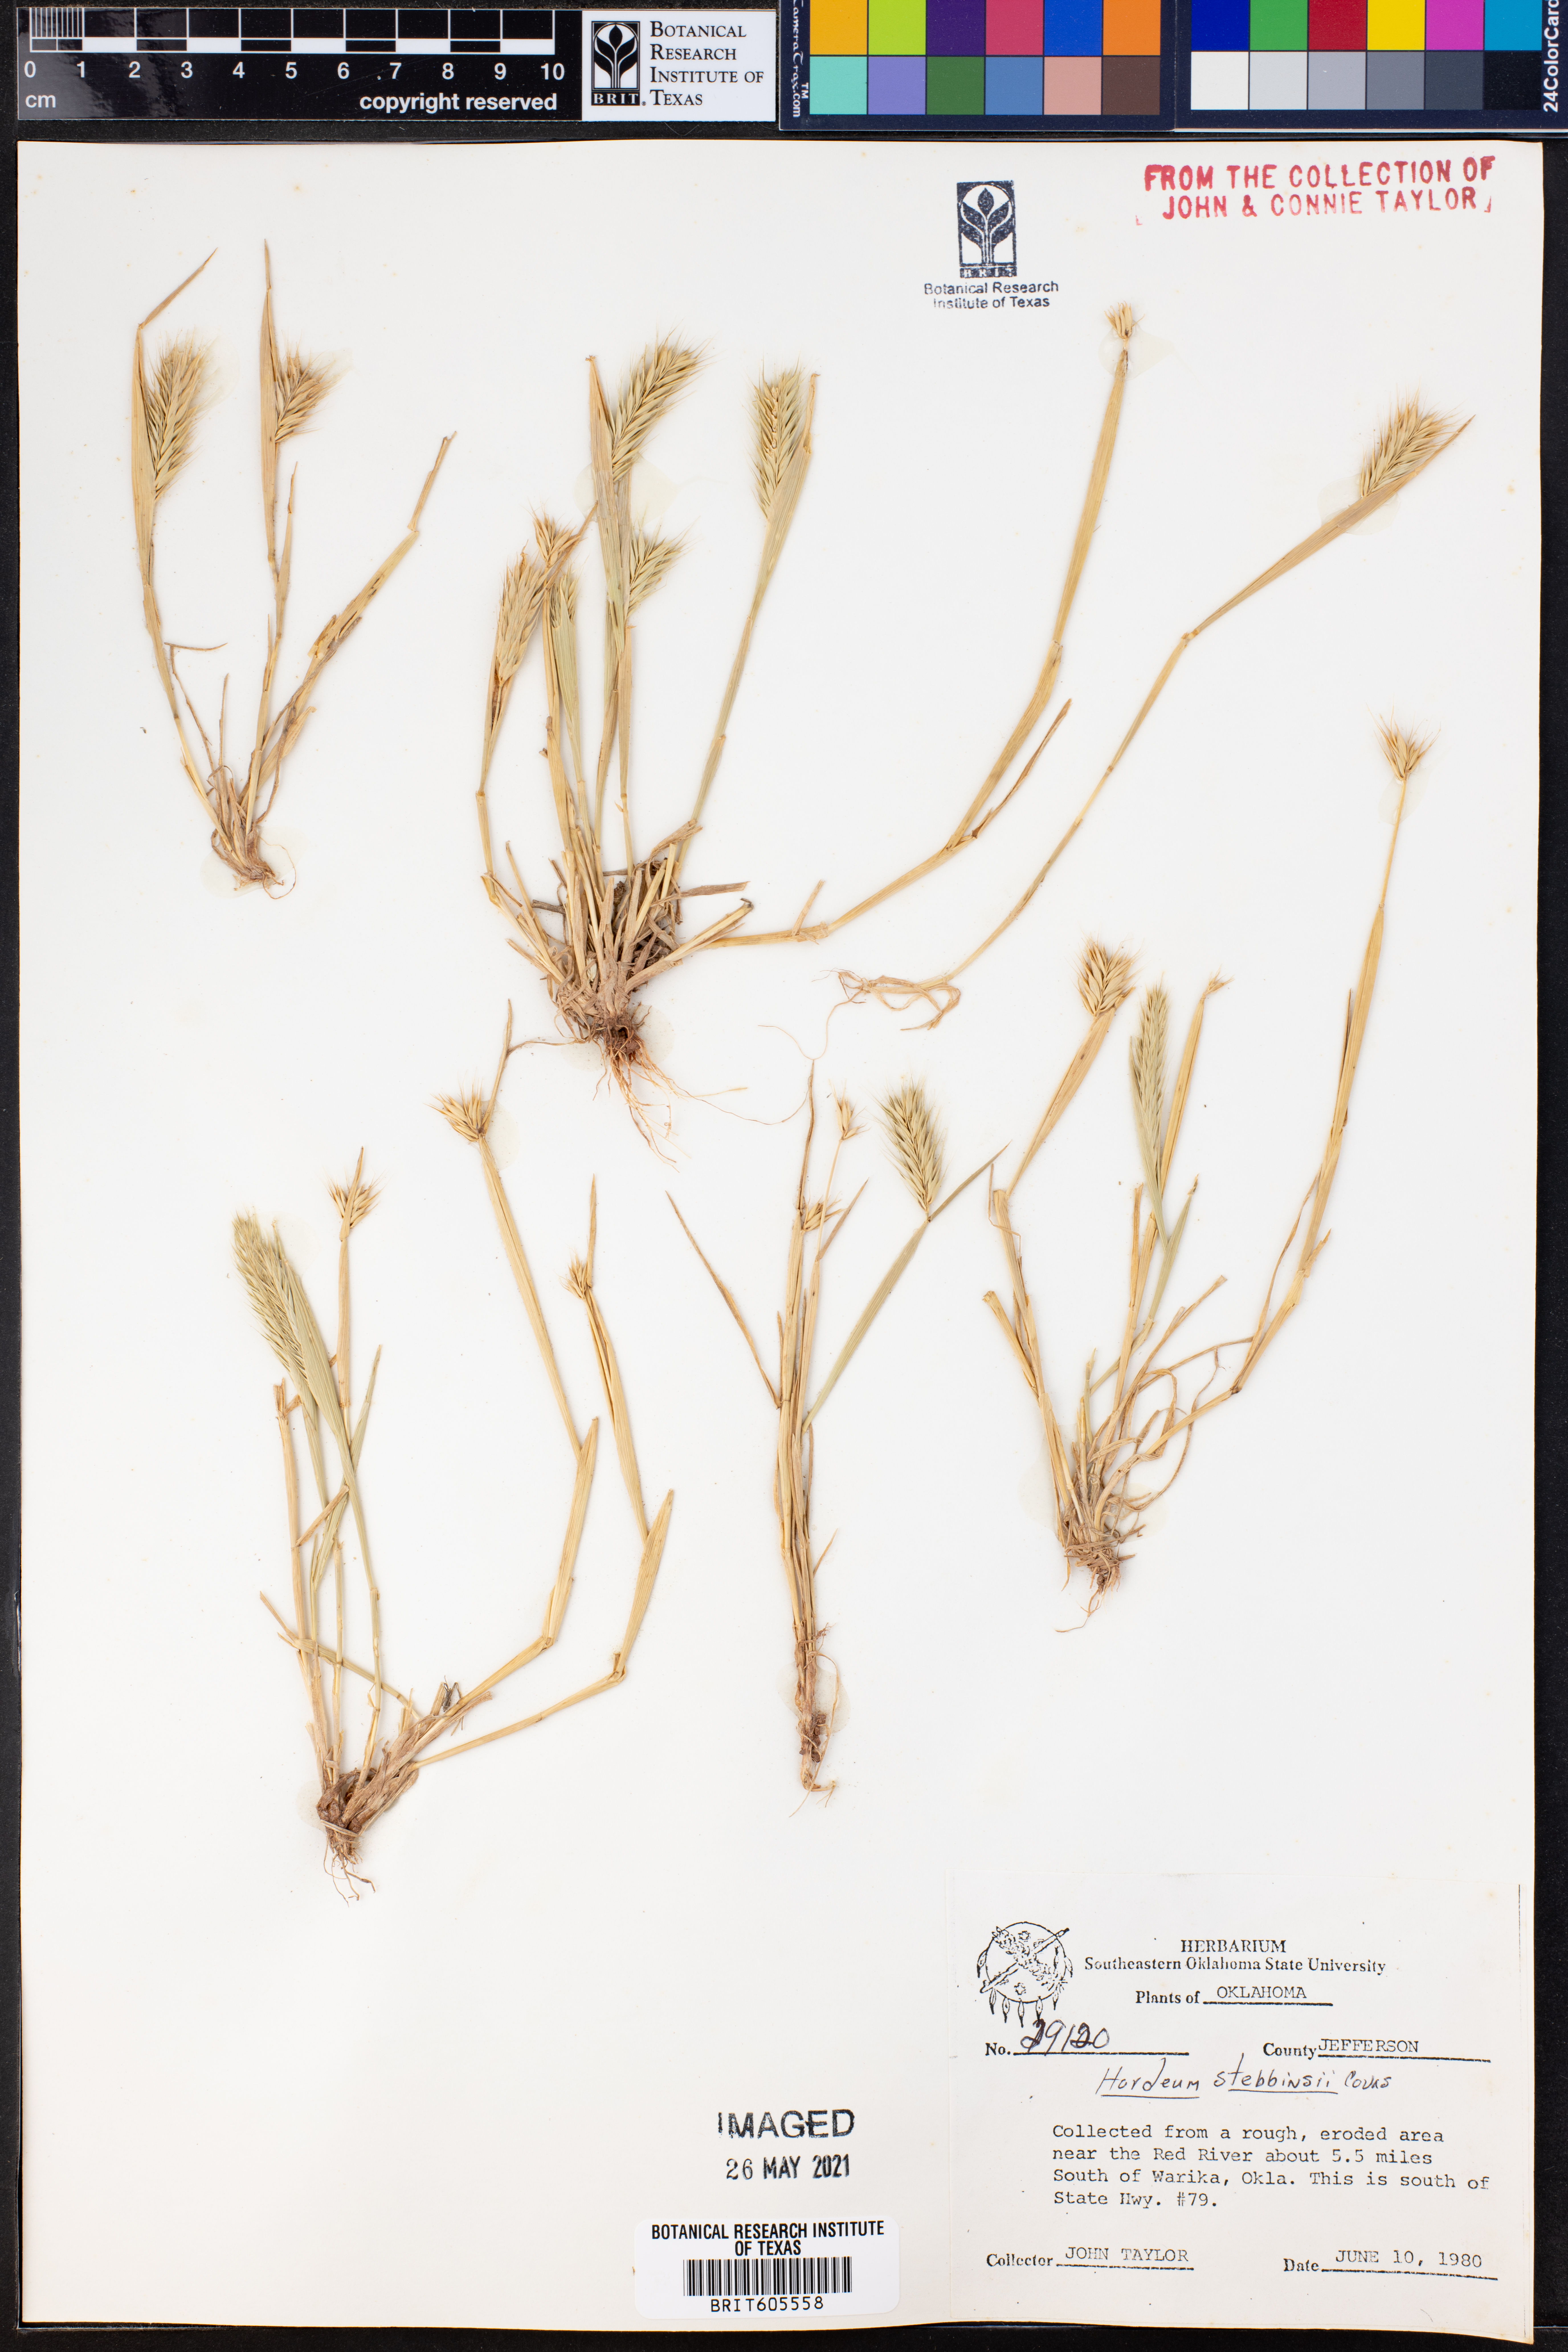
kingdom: Plantae
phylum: Tracheophyta
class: Liliopsida
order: Poales
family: Poaceae
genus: Hordeum
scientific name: Hordeum murinum
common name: Wall barley
